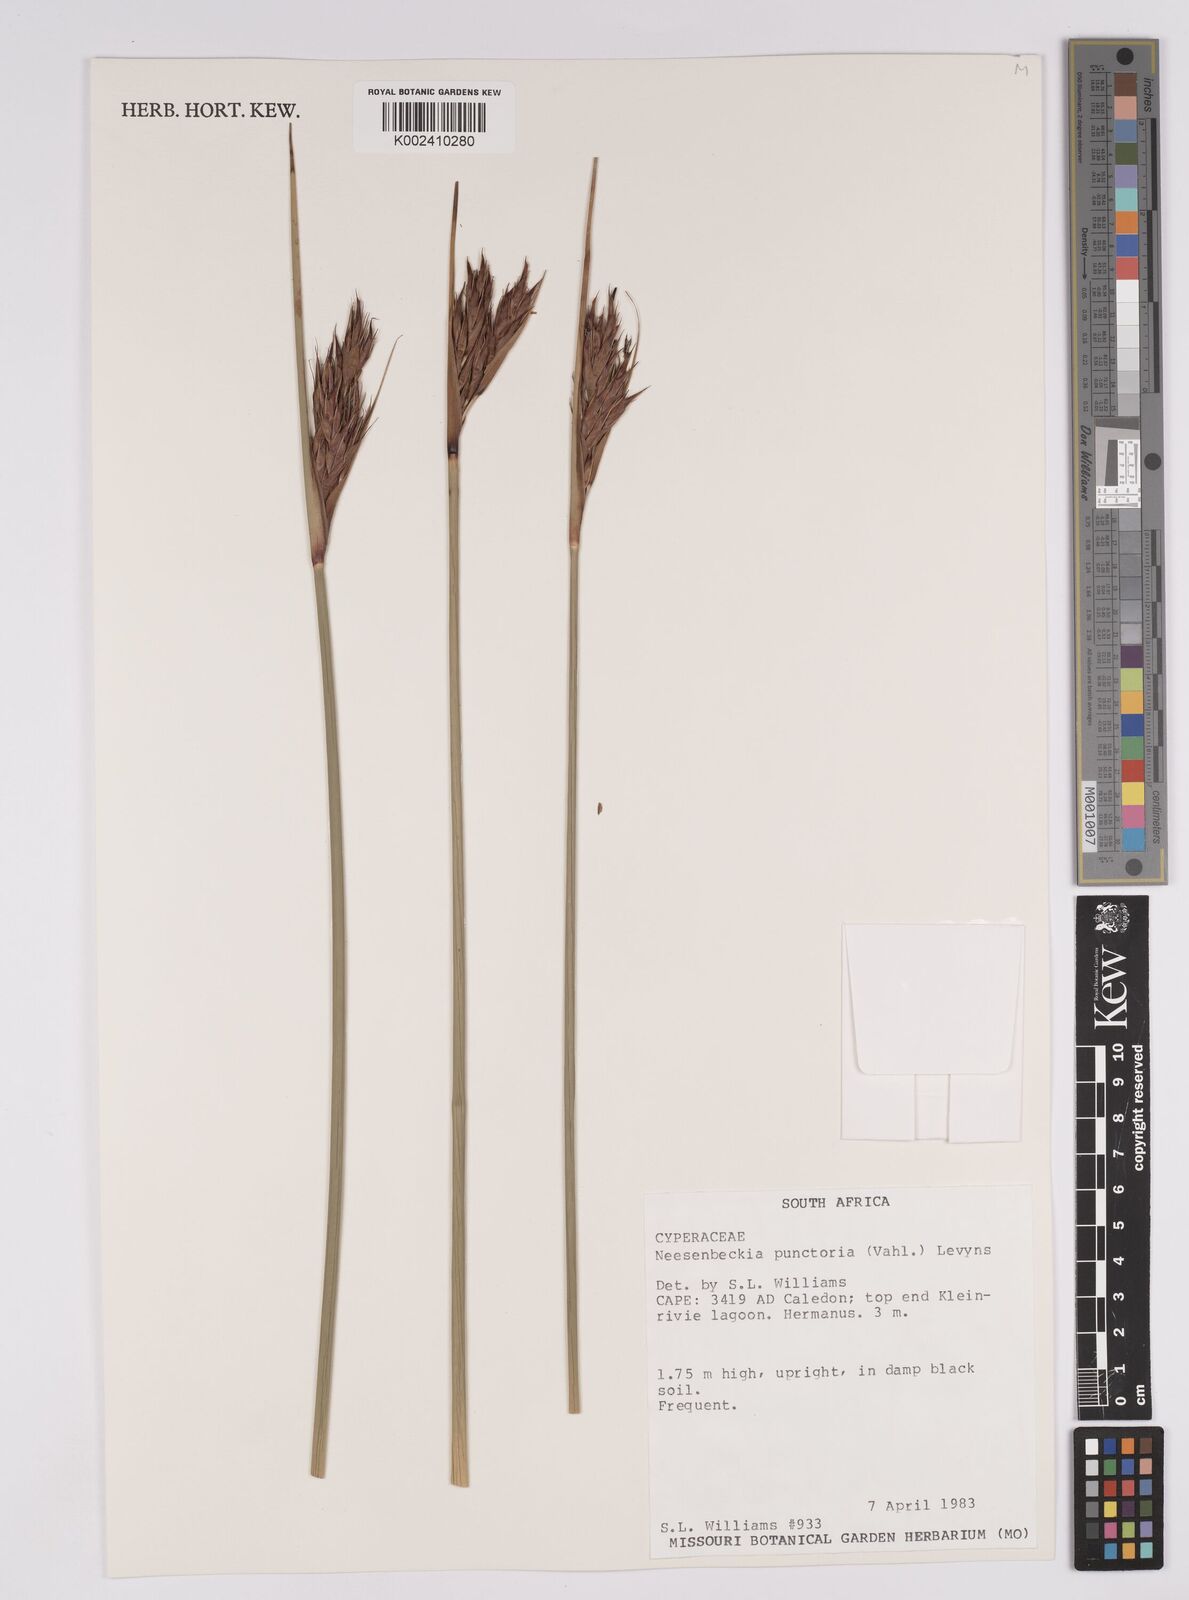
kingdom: Plantae
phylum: Tracheophyta
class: Liliopsida
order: Poales
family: Cyperaceae
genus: Neesenbeckia
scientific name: Neesenbeckia punctoria
